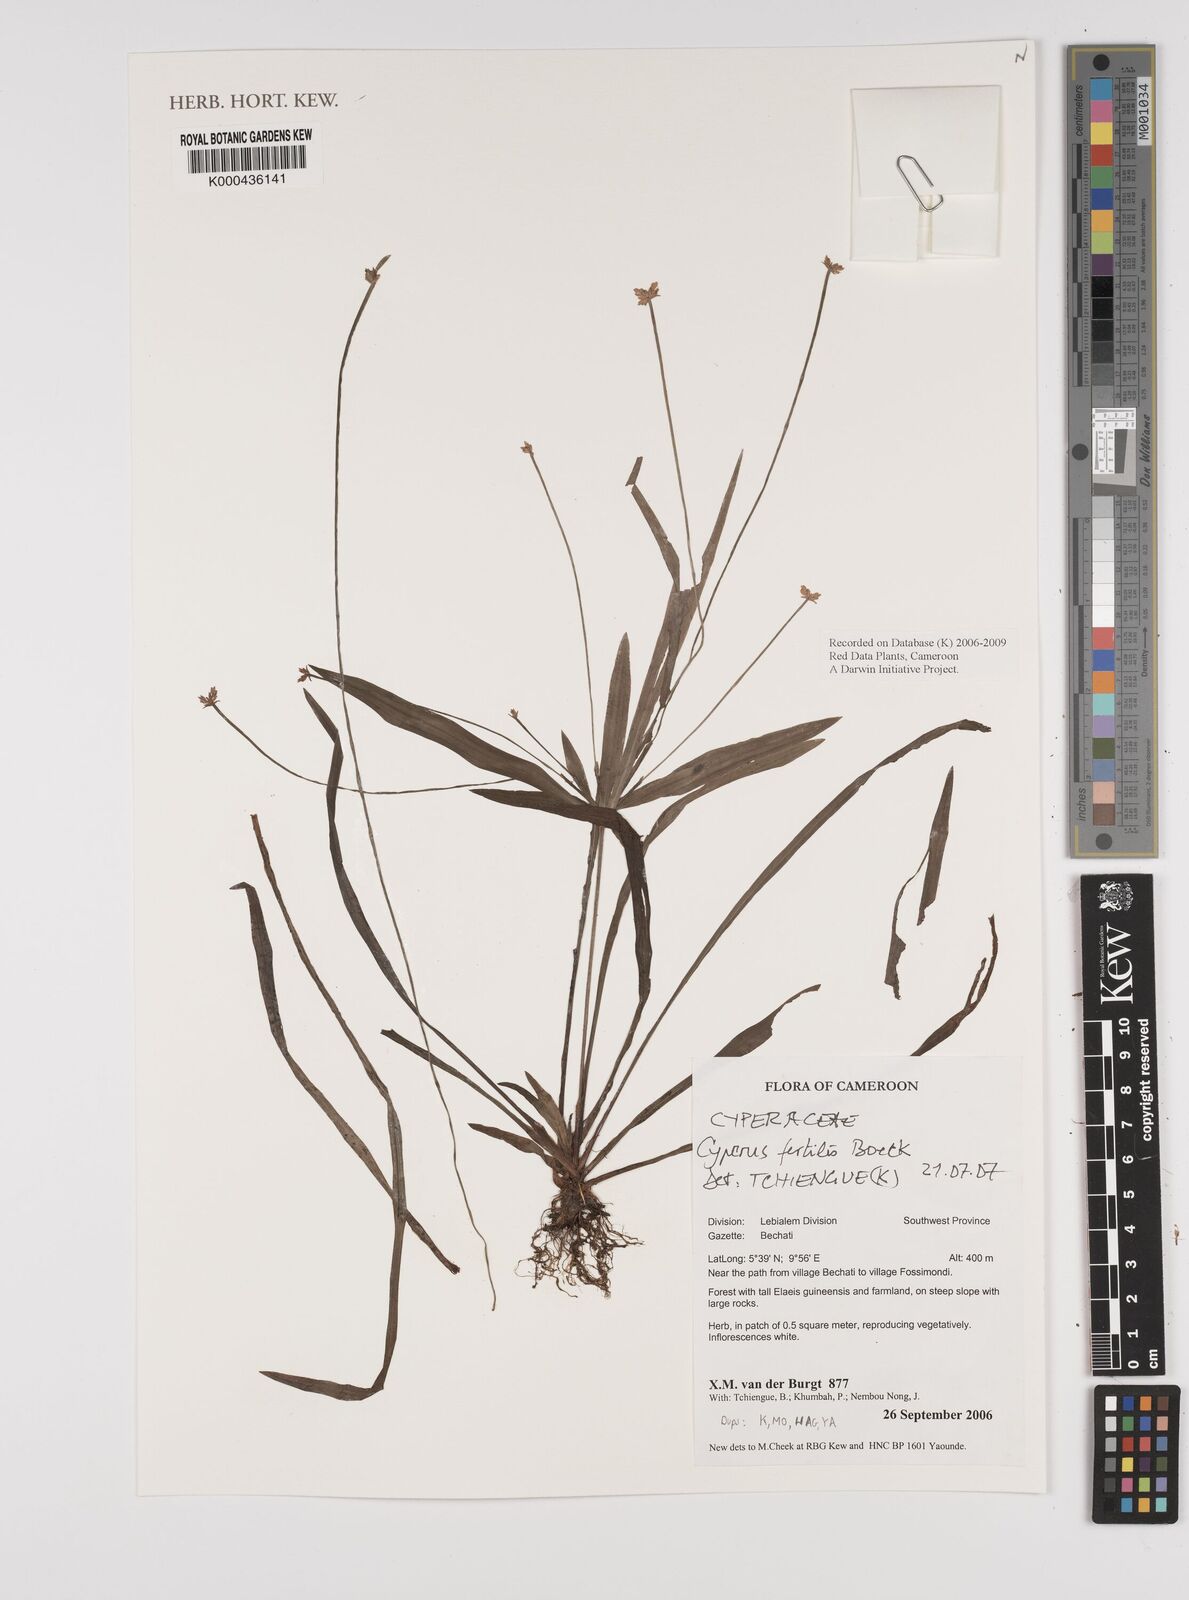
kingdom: Plantae
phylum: Tracheophyta
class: Liliopsida
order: Poales
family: Cyperaceae
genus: Cyperus
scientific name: Cyperus fertilis
